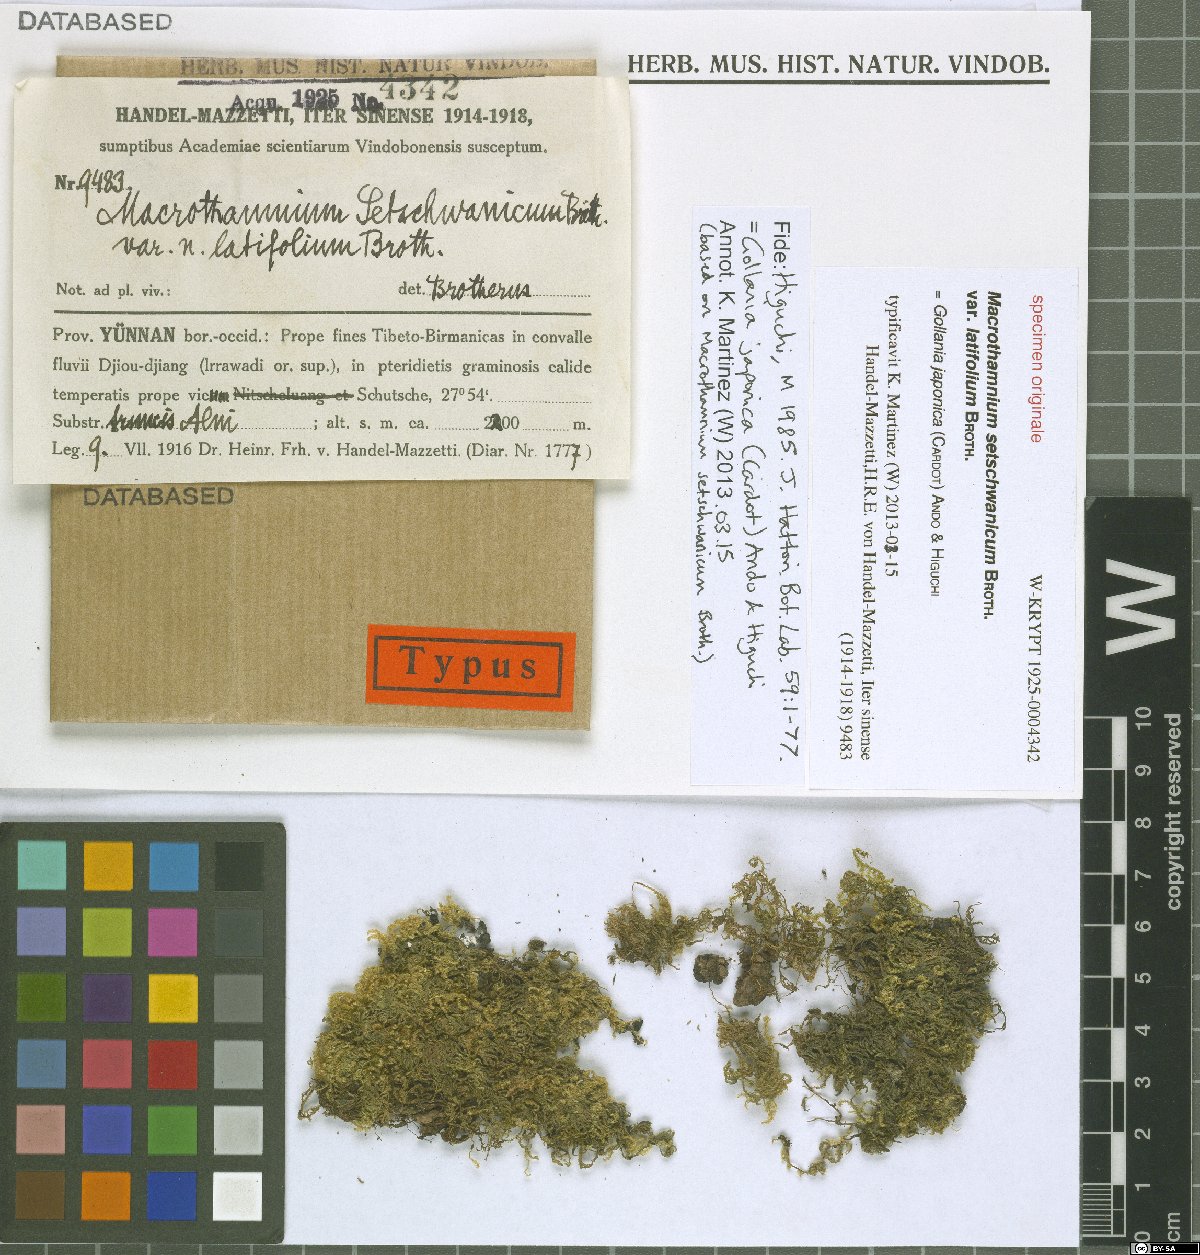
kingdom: Plantae
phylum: Bryophyta
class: Bryopsida
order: Hypnales
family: Hypnaceae
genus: Gollania
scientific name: Gollania setschwanica
